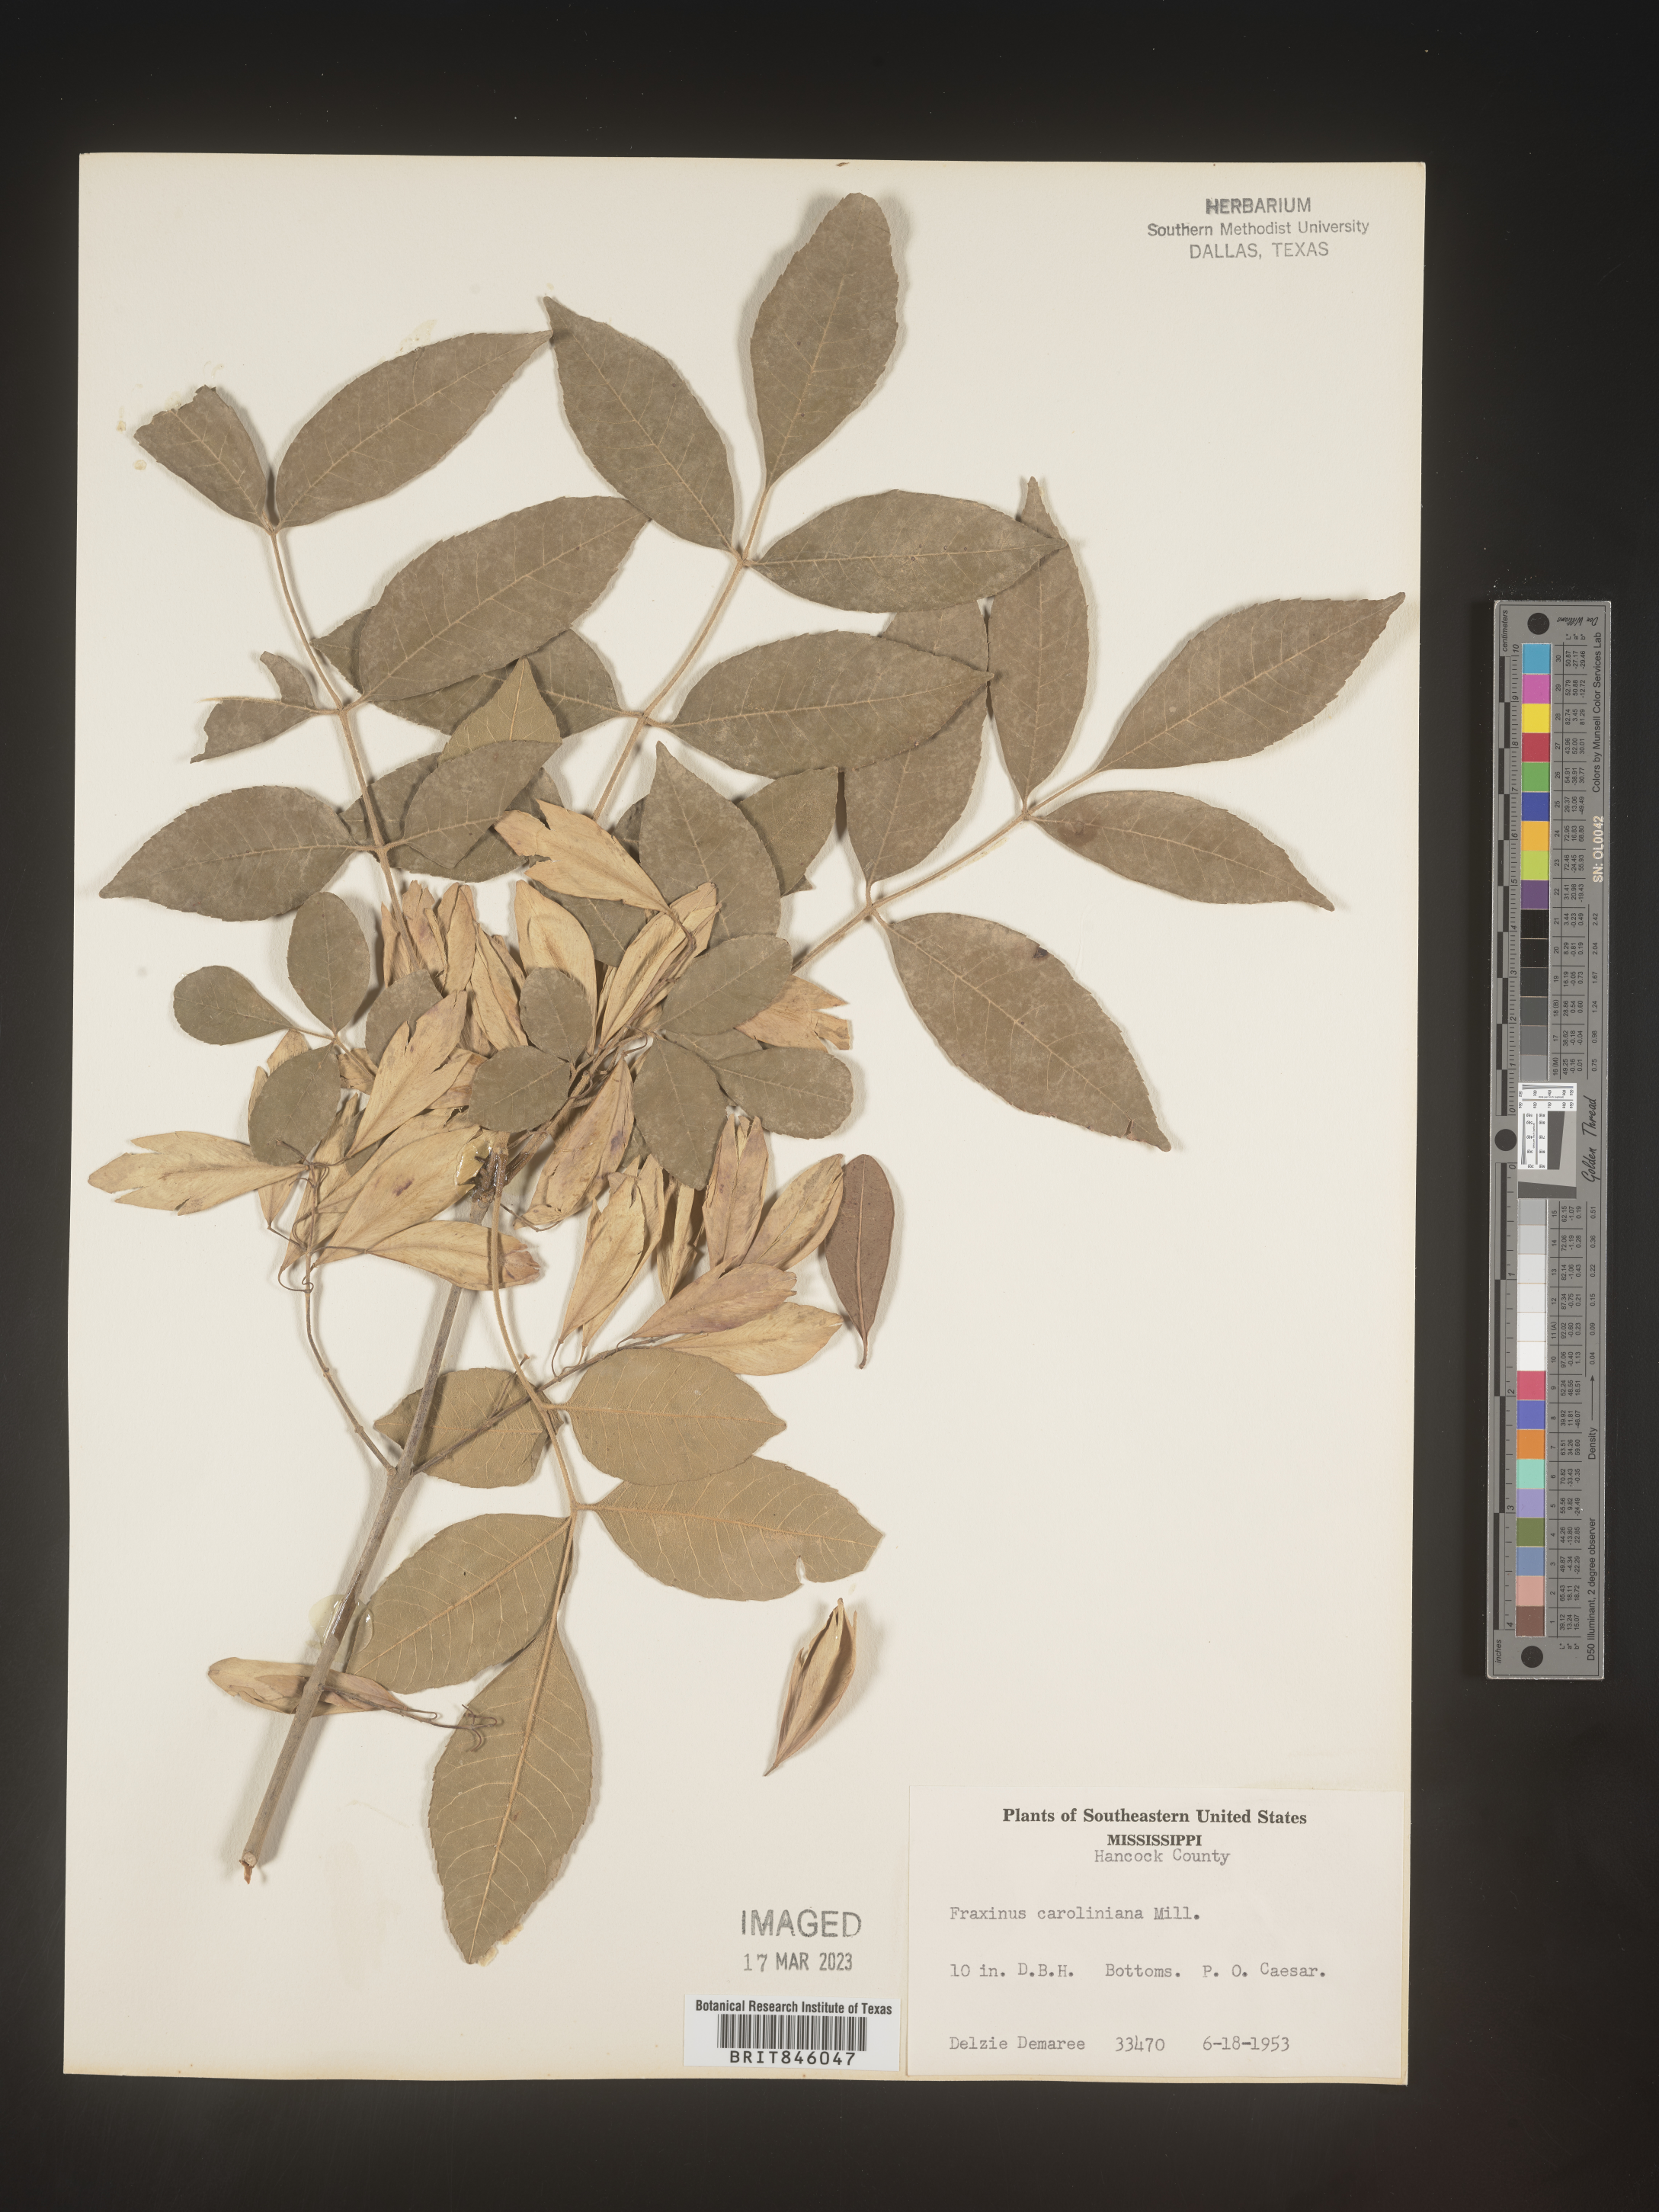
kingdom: Plantae
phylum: Tracheophyta
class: Magnoliopsida
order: Lamiales
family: Oleaceae
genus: Fraxinus
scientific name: Fraxinus caroliniana
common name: Carolina ash
